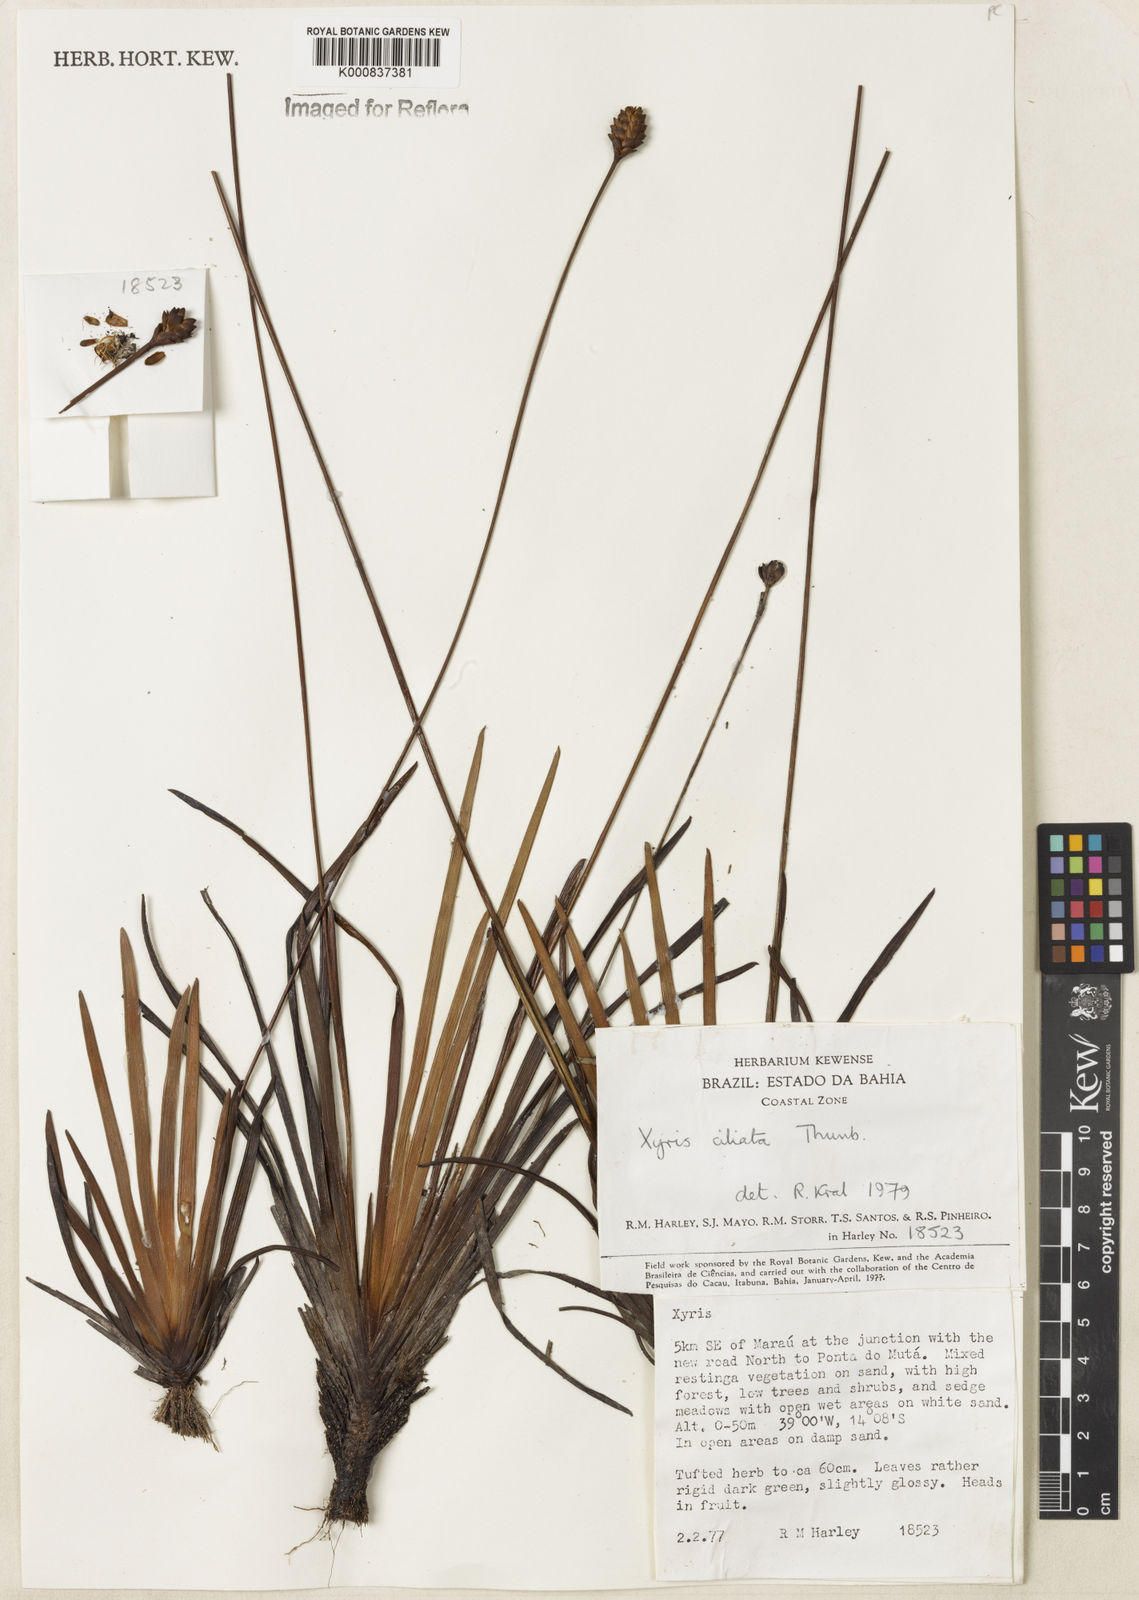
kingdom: Plantae
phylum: Tracheophyta
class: Liliopsida
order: Poales
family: Xyridaceae
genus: Xyris
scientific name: Xyris ciliata
